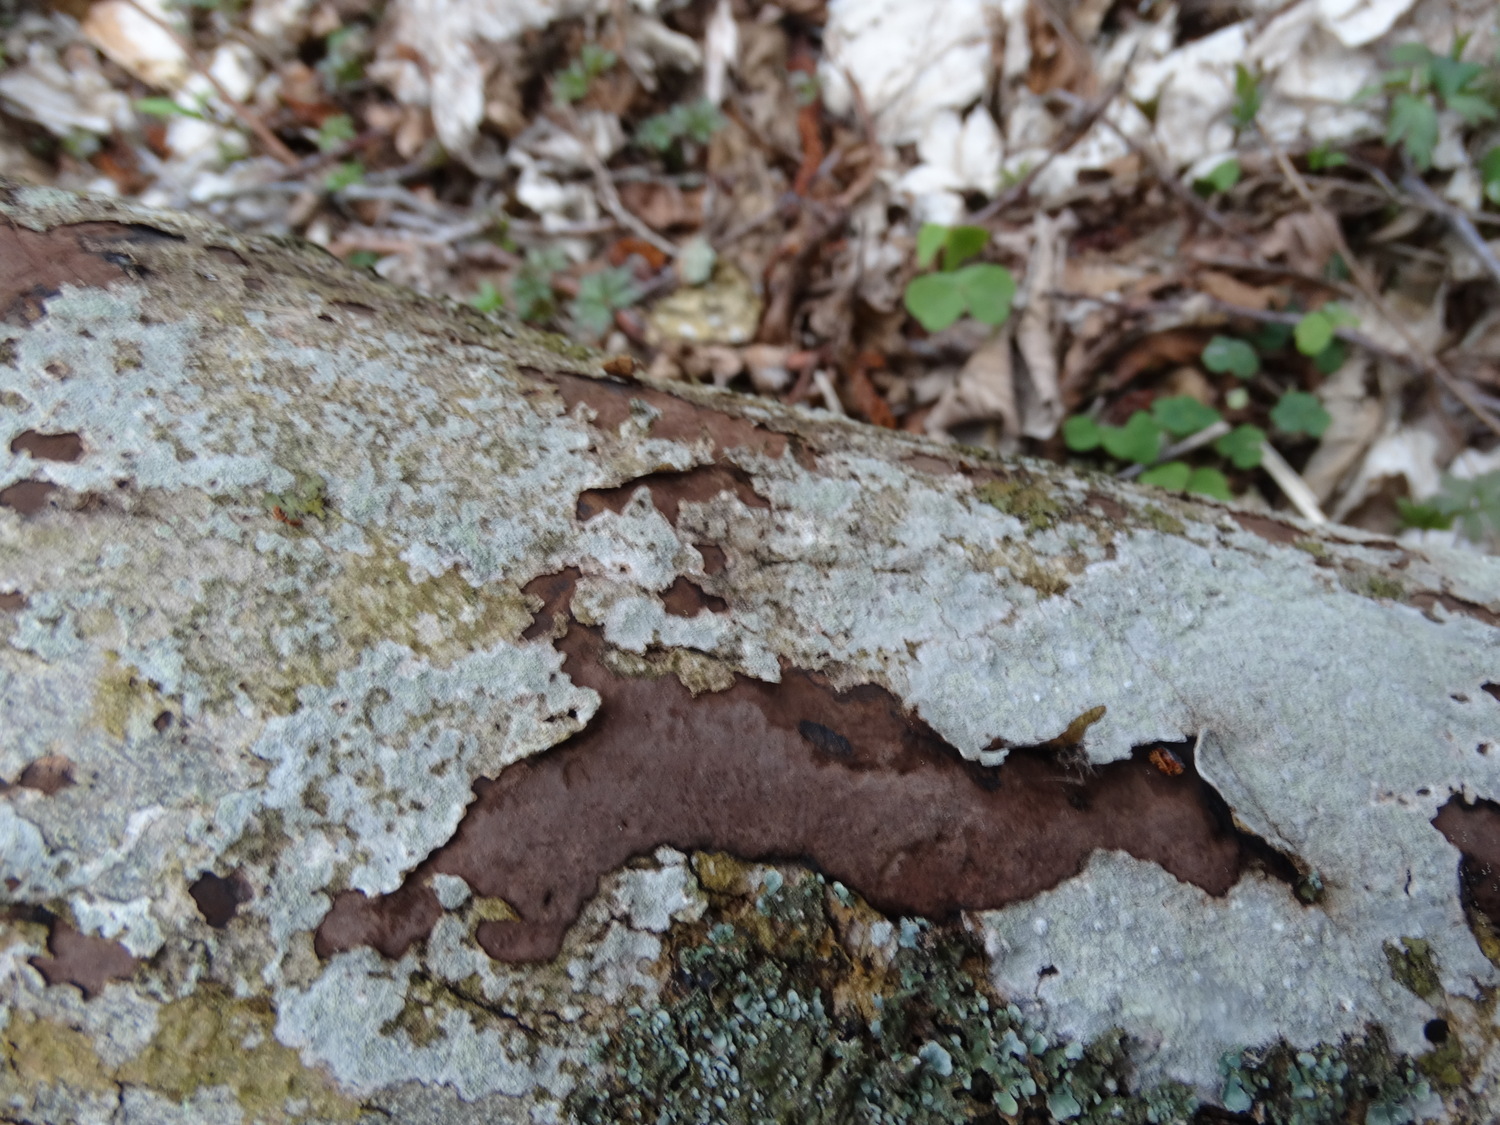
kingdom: Fungi
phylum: Ascomycota
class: Sordariomycetes
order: Xylariales
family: Hypoxylaceae
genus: Hypoxylon
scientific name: Hypoxylon petriniae
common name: nedsænket kulbær
